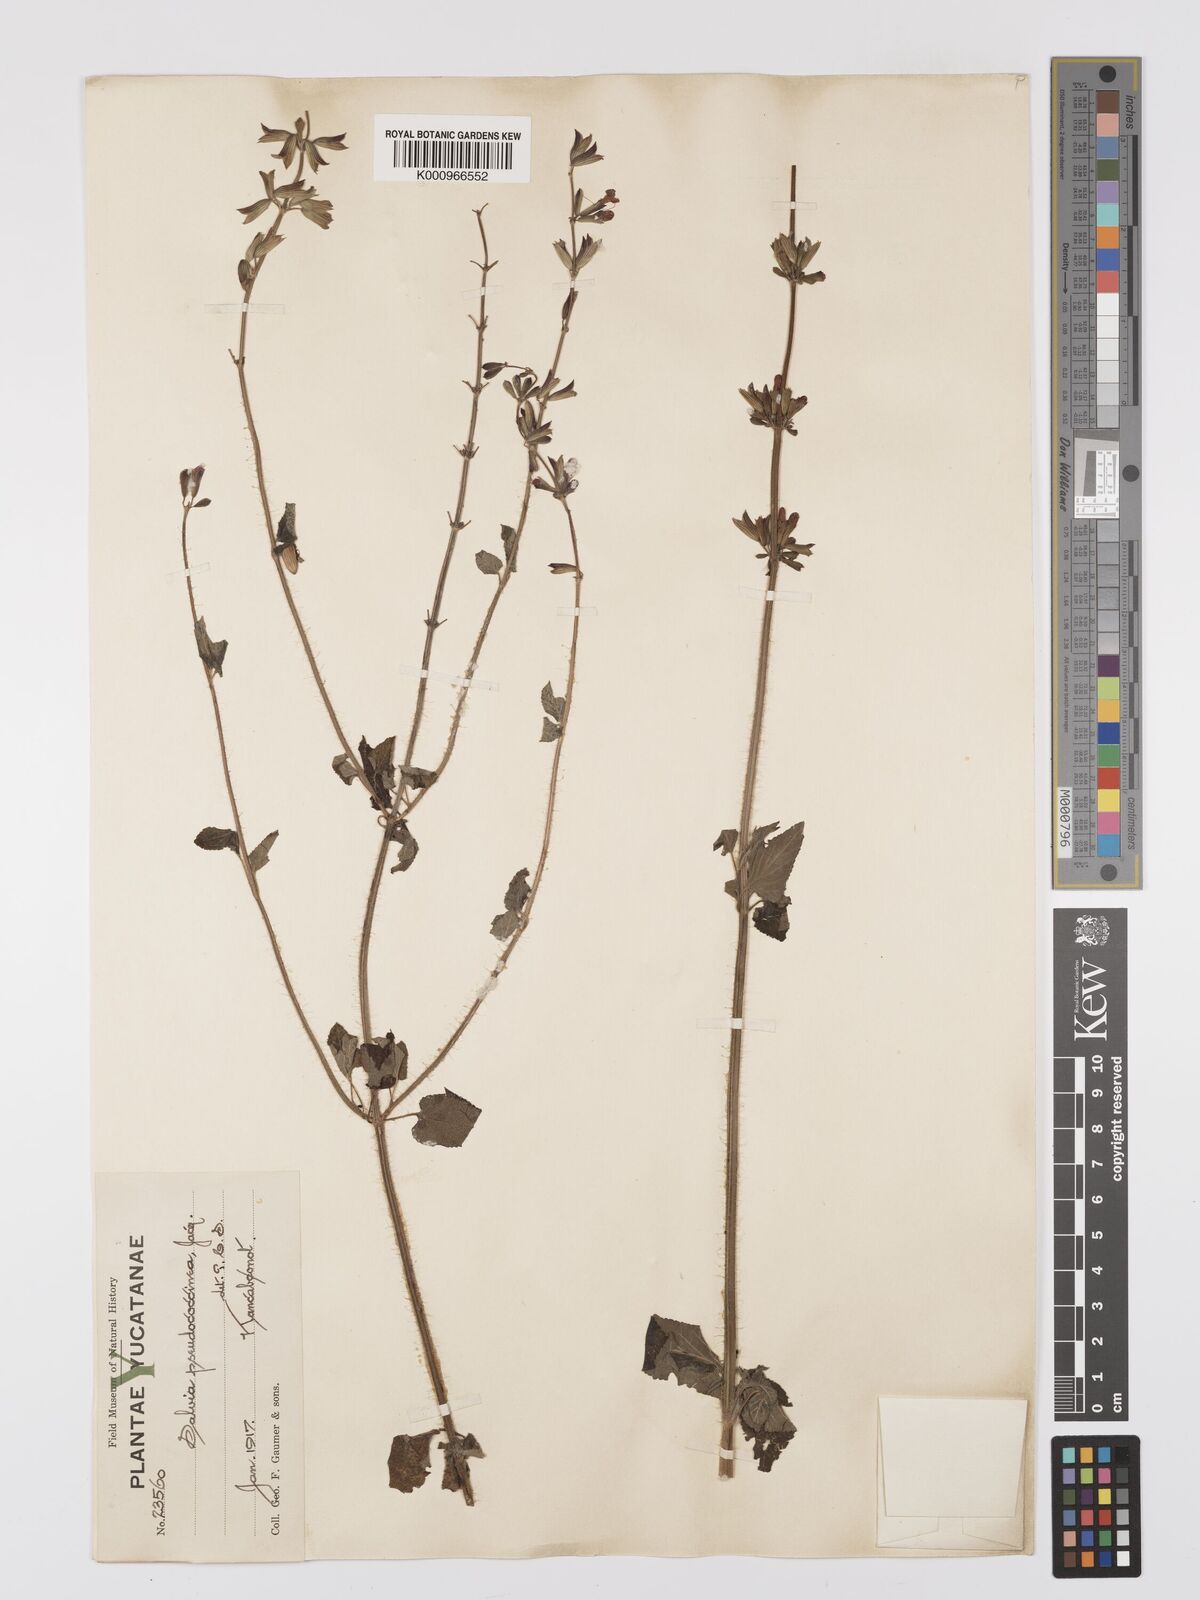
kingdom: Plantae
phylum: Tracheophyta
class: Magnoliopsida
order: Lamiales
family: Lamiaceae
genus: Salvia
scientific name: Salvia
